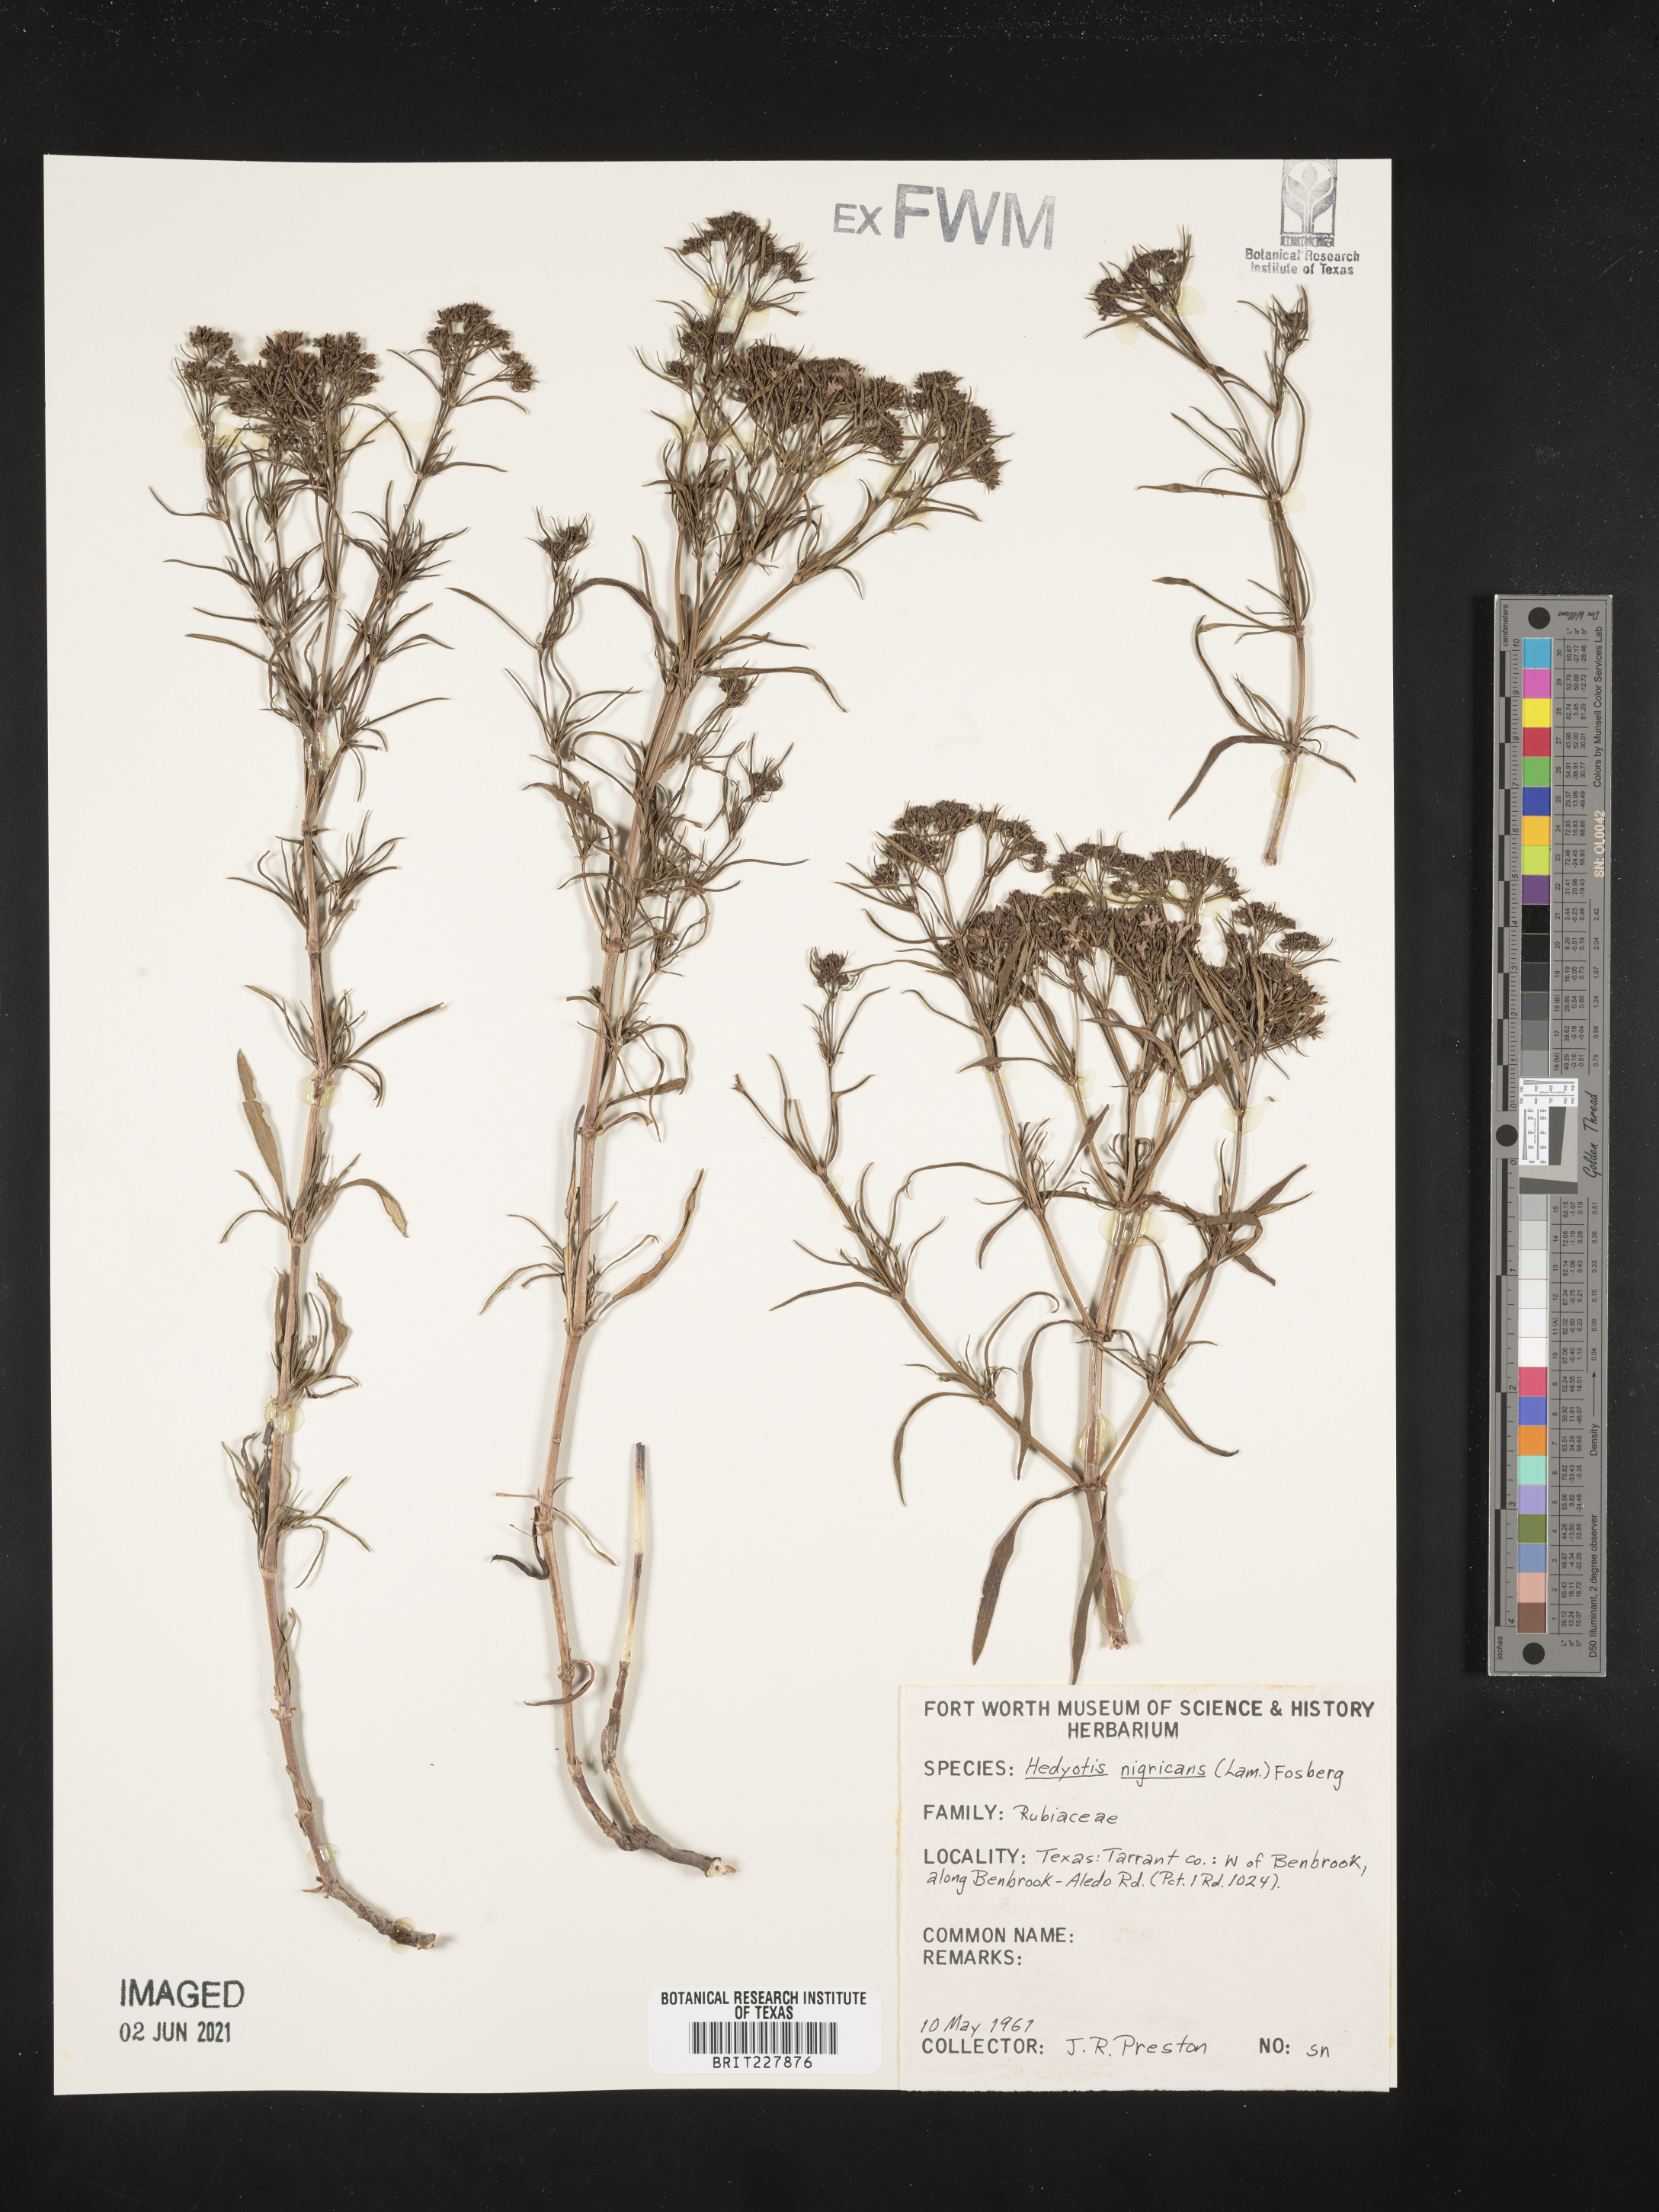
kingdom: Plantae
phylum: Tracheophyta
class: Magnoliopsida
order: Gentianales
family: Rubiaceae
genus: Stenaria
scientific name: Stenaria nigricans
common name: Diamondflowers
